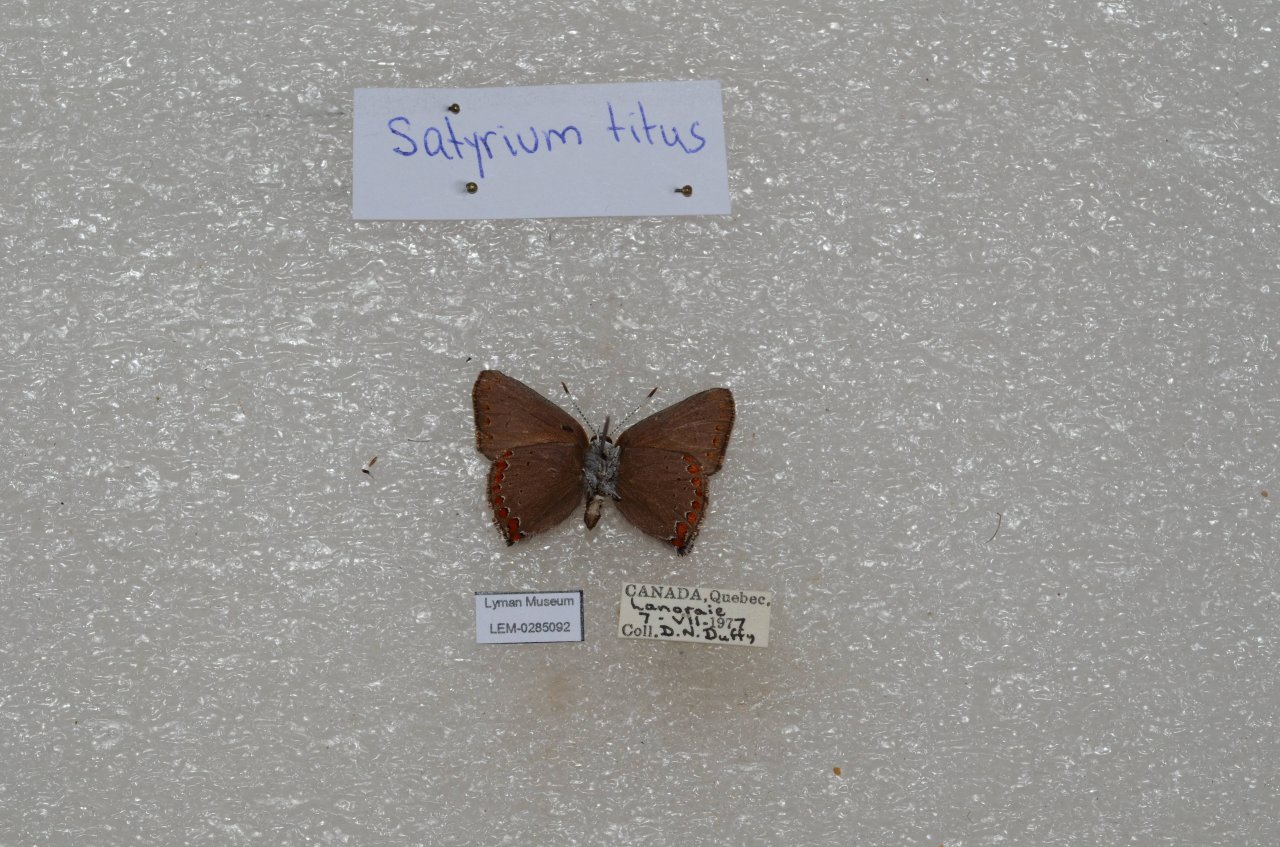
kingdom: Animalia
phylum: Arthropoda
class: Insecta
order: Lepidoptera
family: Lycaenidae
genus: Harkenclenus
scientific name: Harkenclenus titus
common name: Coral Hairstreak
